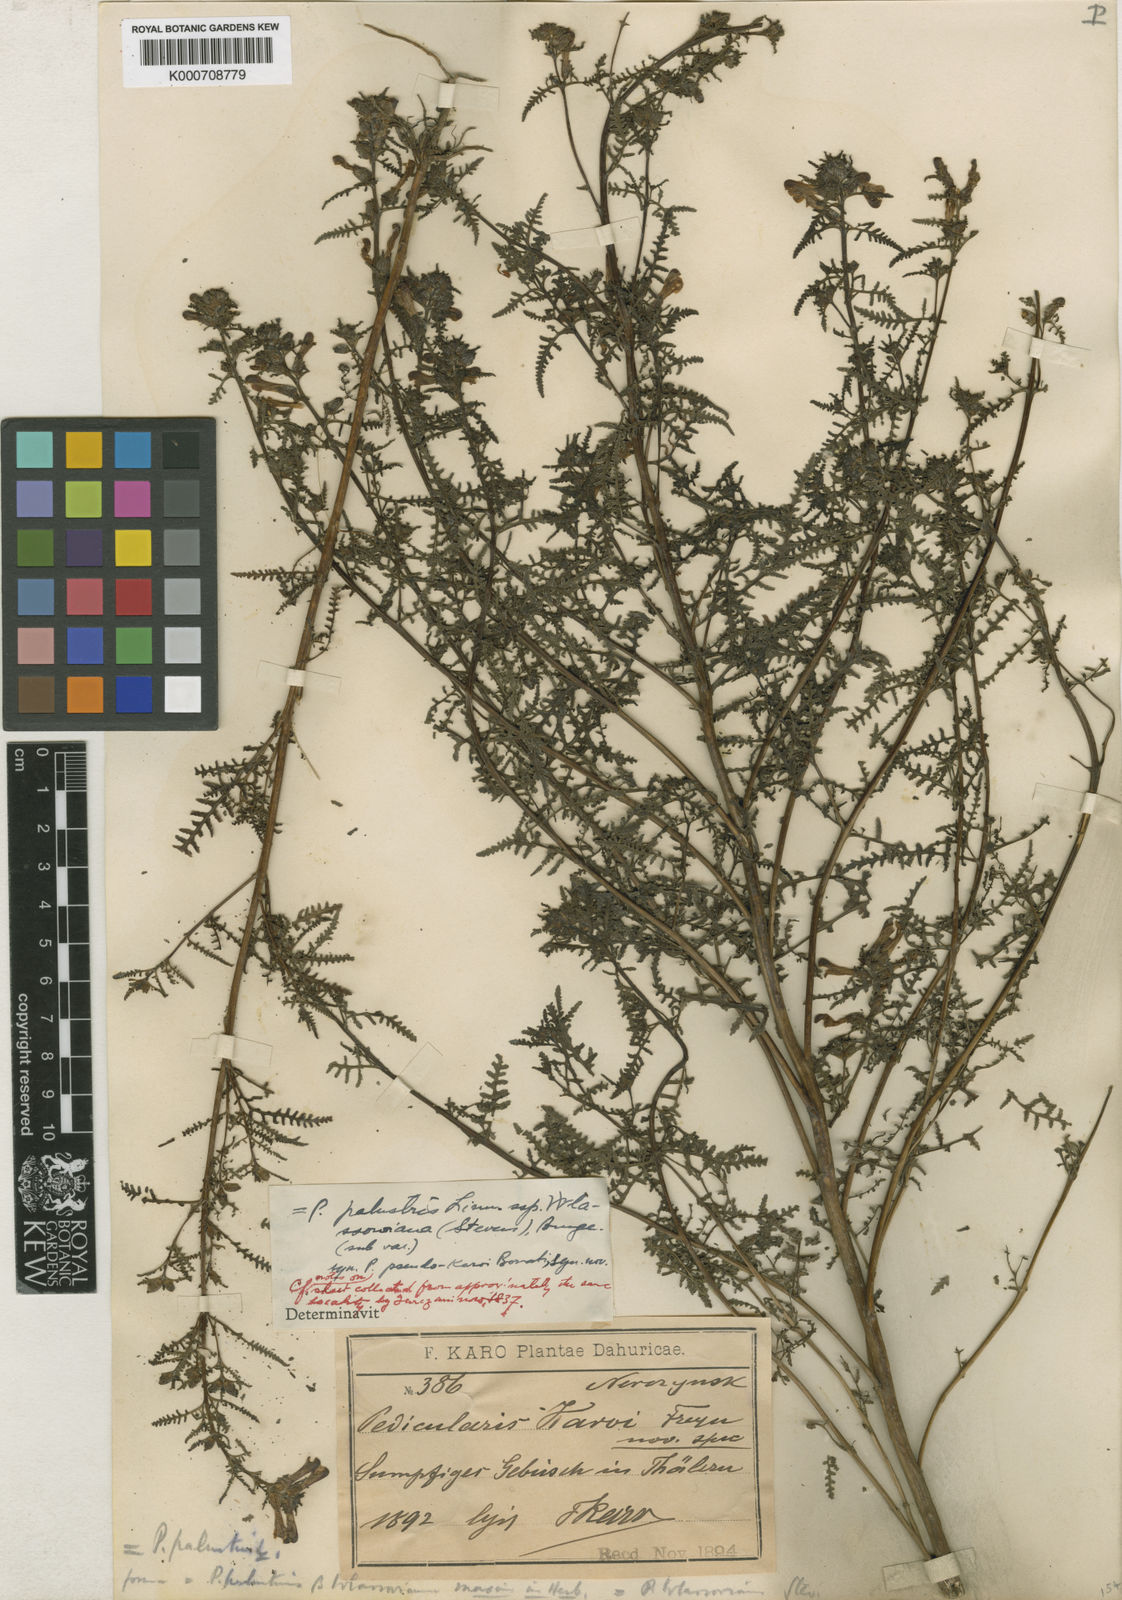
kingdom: Plantae
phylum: Tracheophyta
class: Magnoliopsida
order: Lamiales
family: Orobanchaceae
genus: Pedicularis
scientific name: Pedicularis palustris
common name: Marsh lousewort
